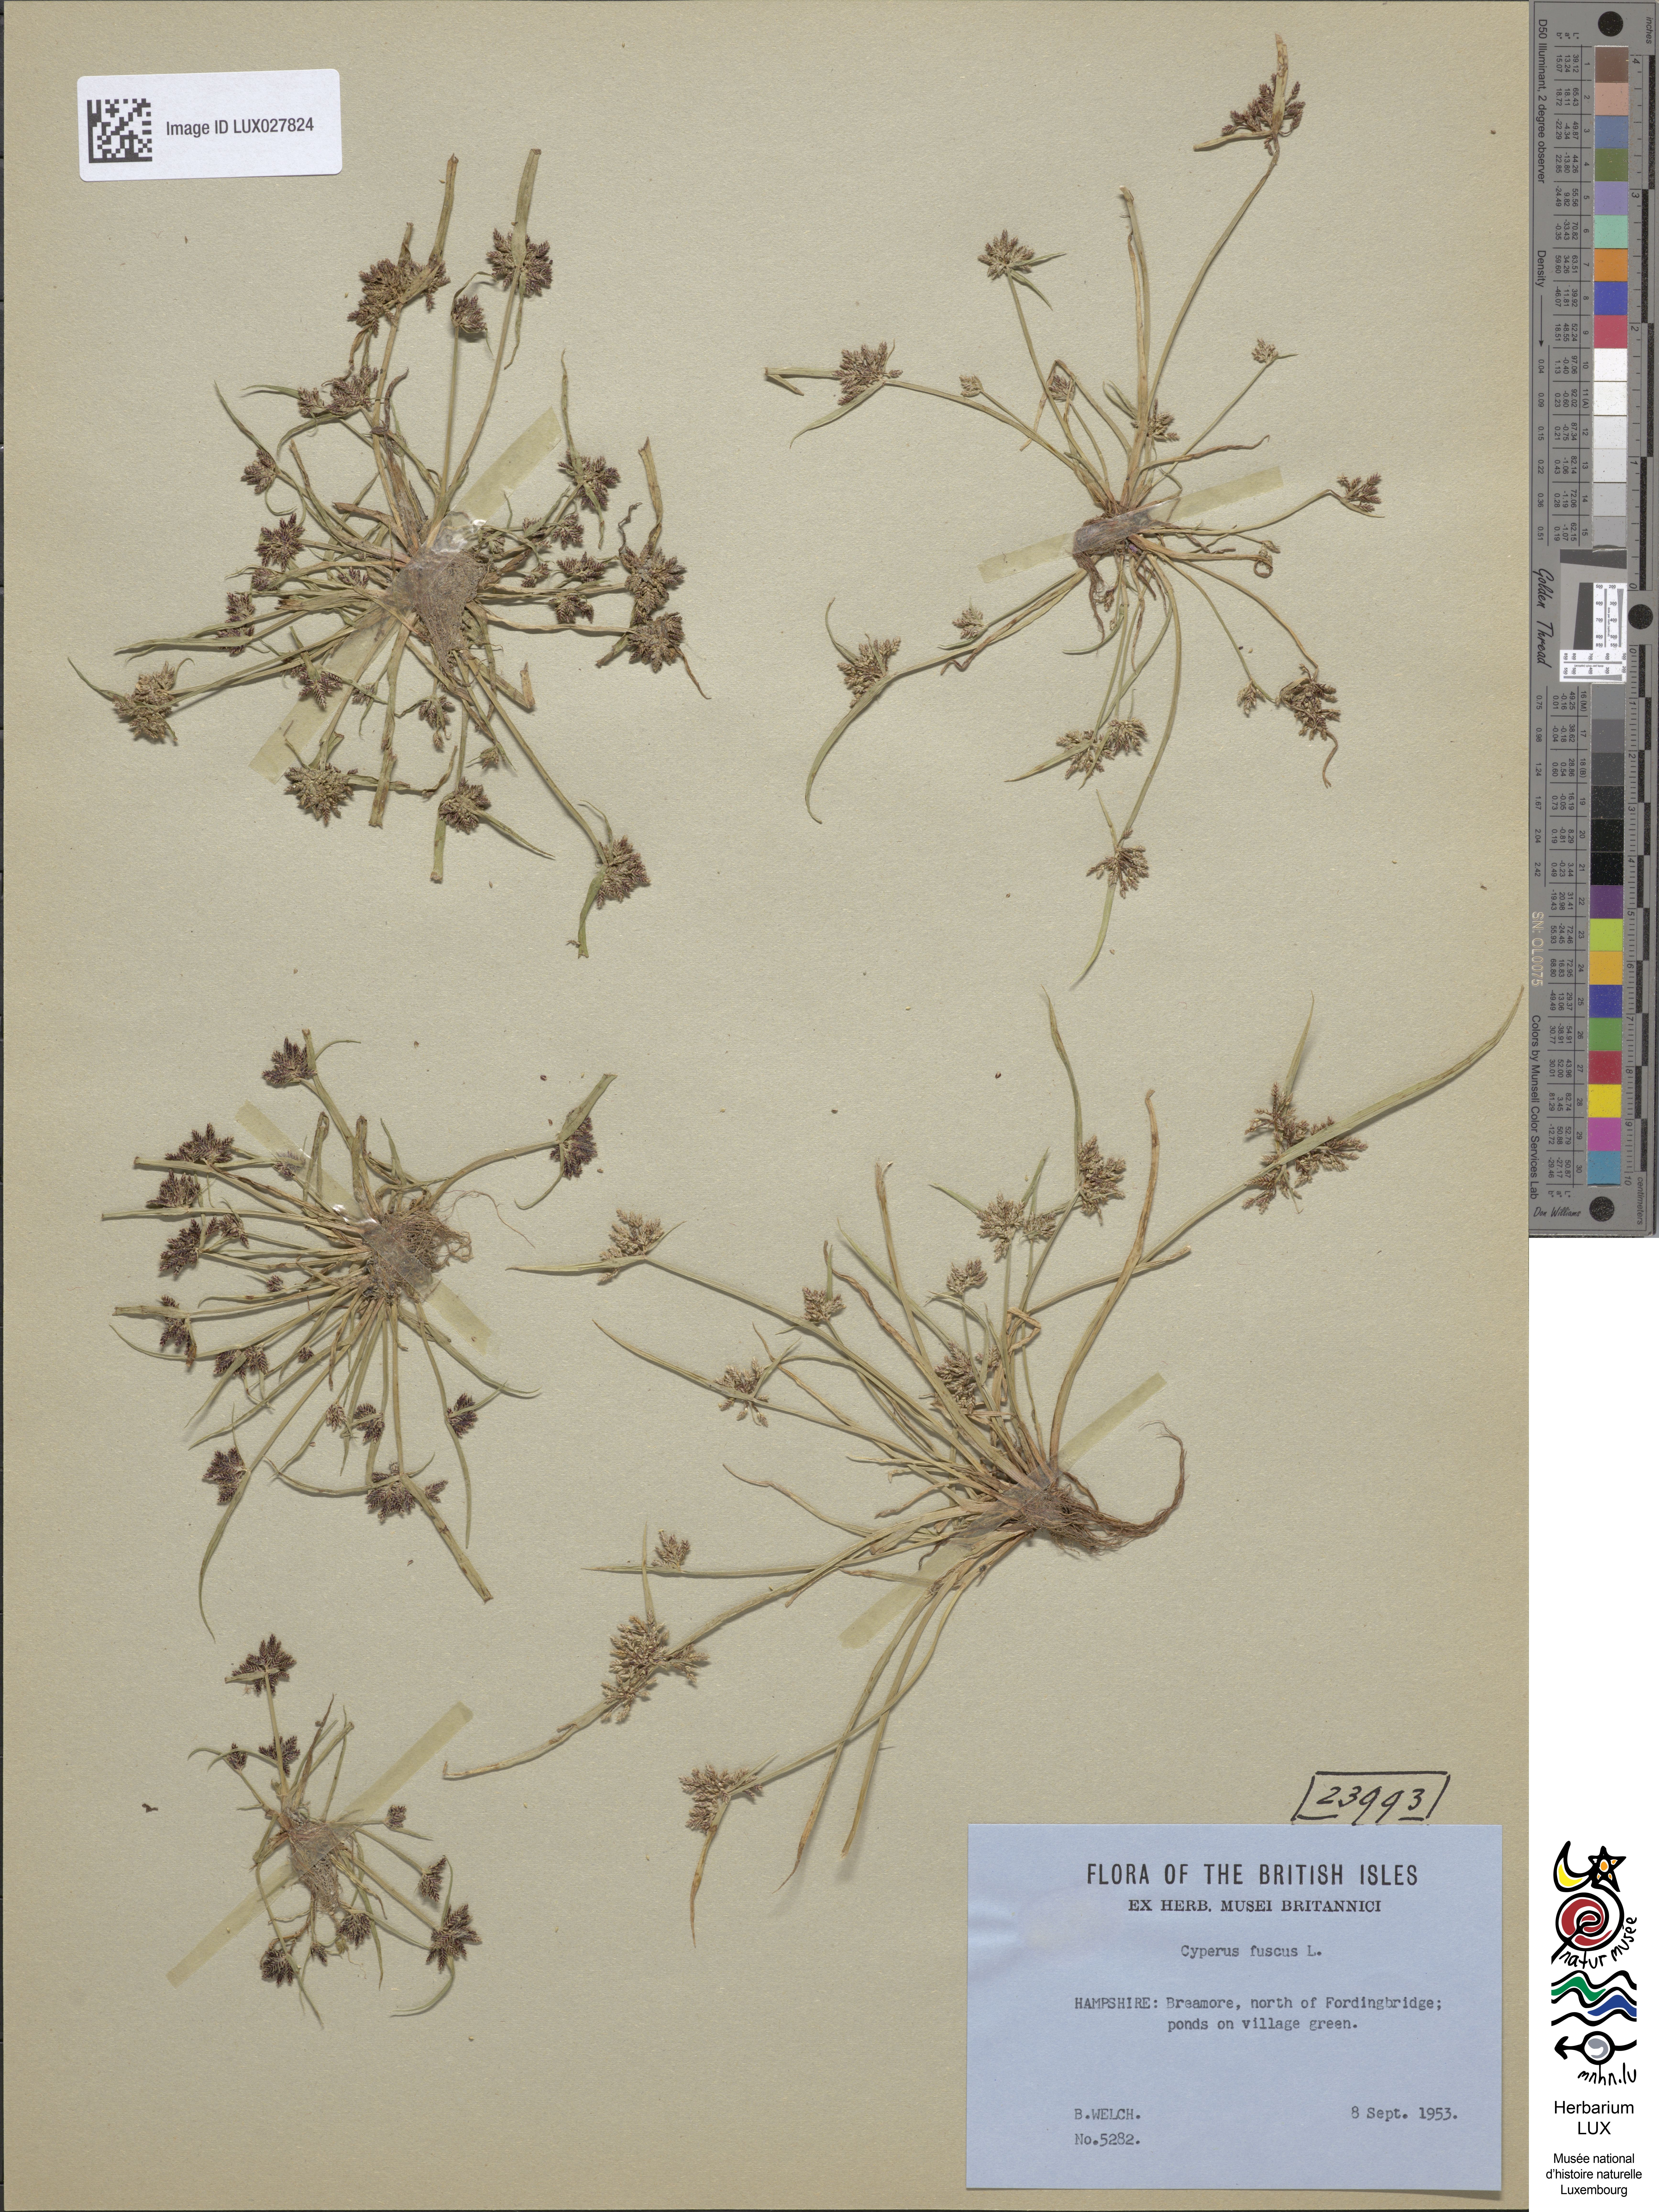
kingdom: Plantae
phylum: Tracheophyta
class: Liliopsida
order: Poales
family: Cyperaceae
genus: Cyperus
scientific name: Cyperus fuscus
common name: Brown galingale
